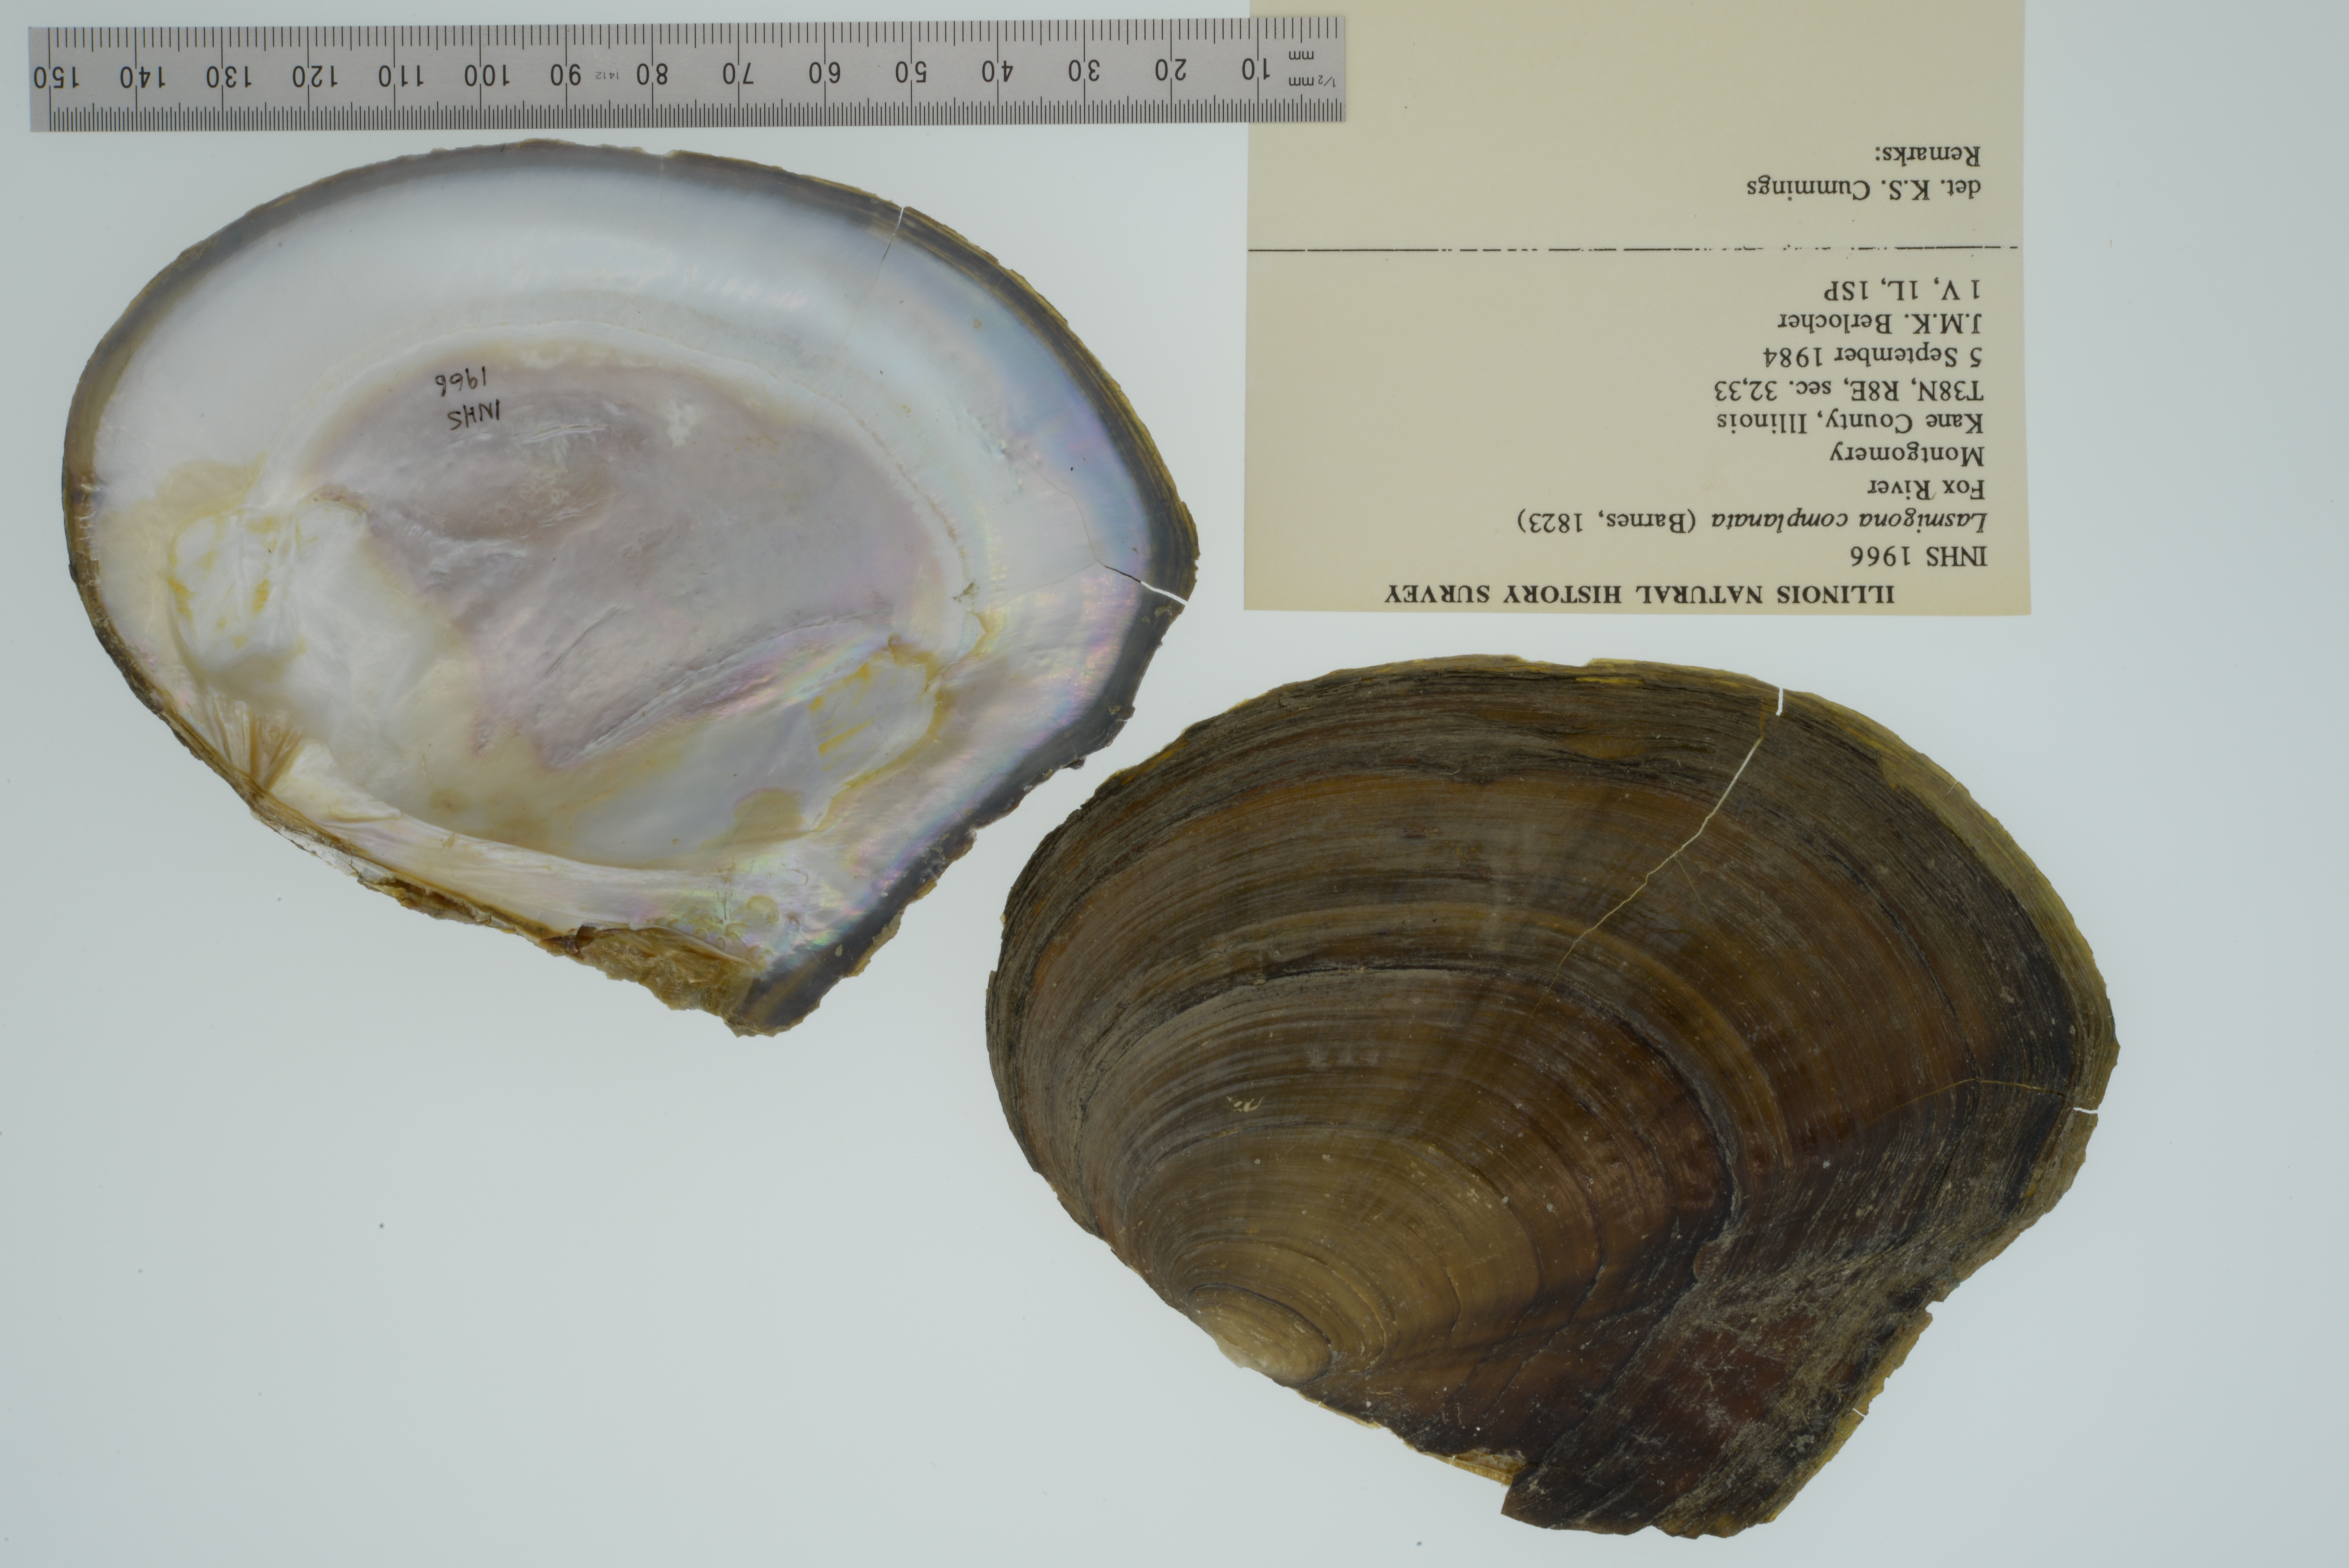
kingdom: Animalia
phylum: Mollusca
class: Bivalvia
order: Unionida
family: Unionidae
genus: Lasmigona
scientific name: Lasmigona complanata
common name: White heelsplitter
